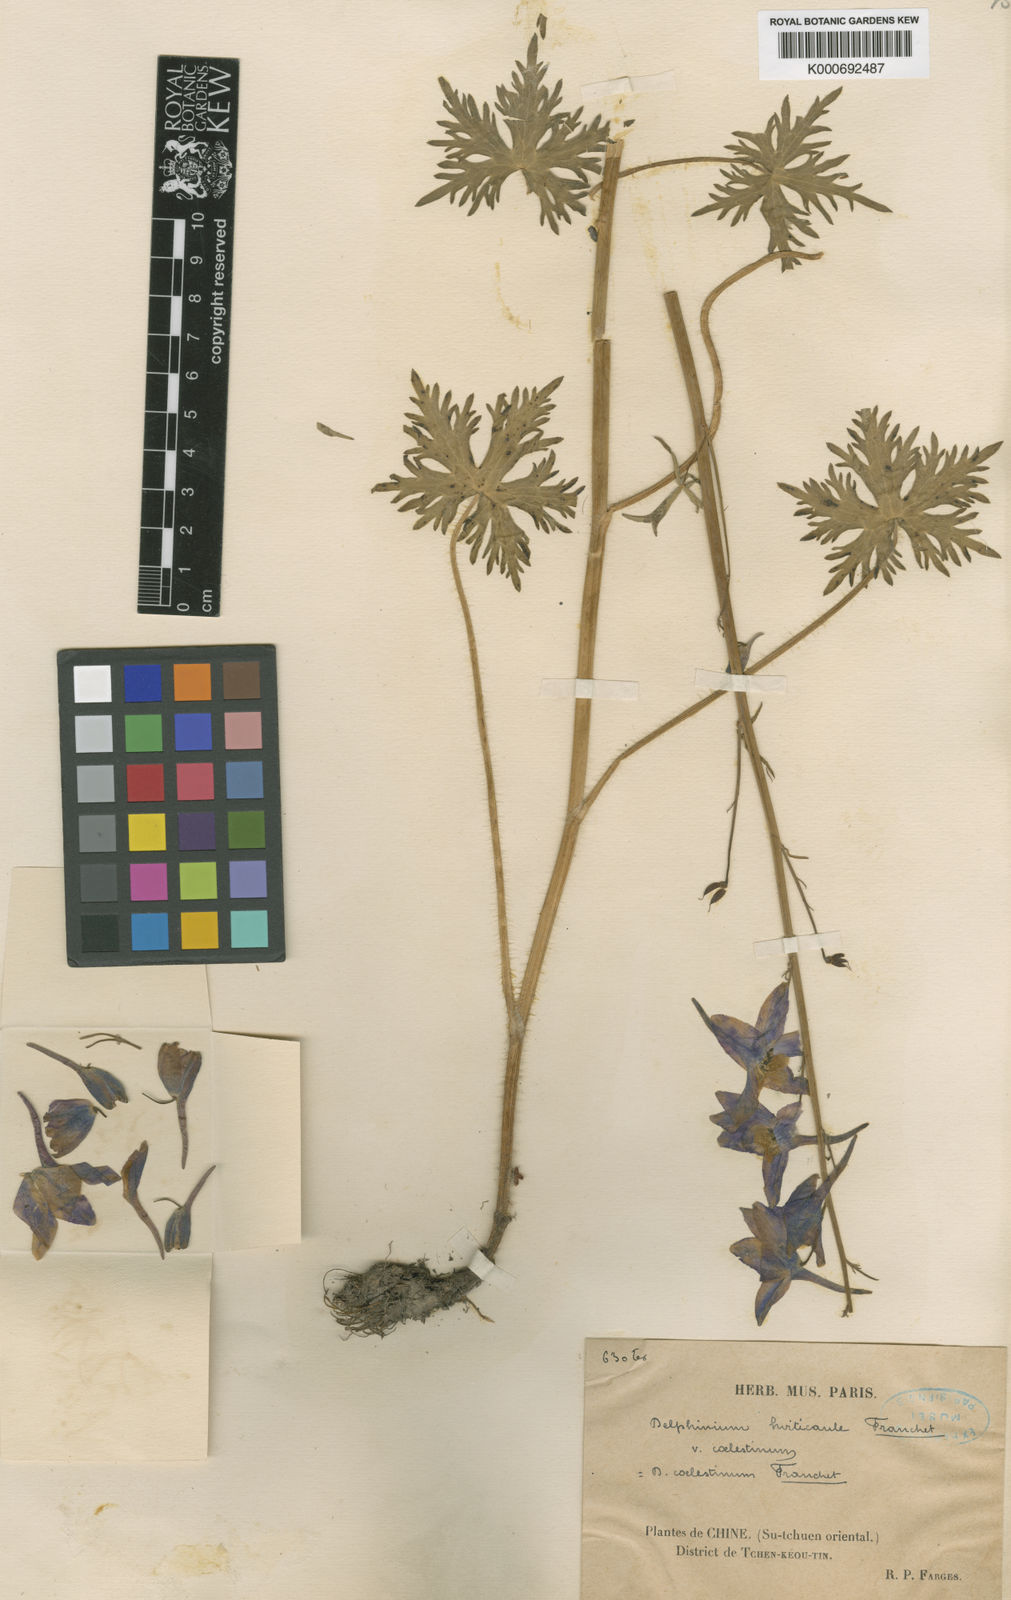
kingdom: Plantae
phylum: Tracheophyta
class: Magnoliopsida
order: Ranunculales
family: Ranunculaceae
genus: Delphinium
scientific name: Delphinium hirticaule
